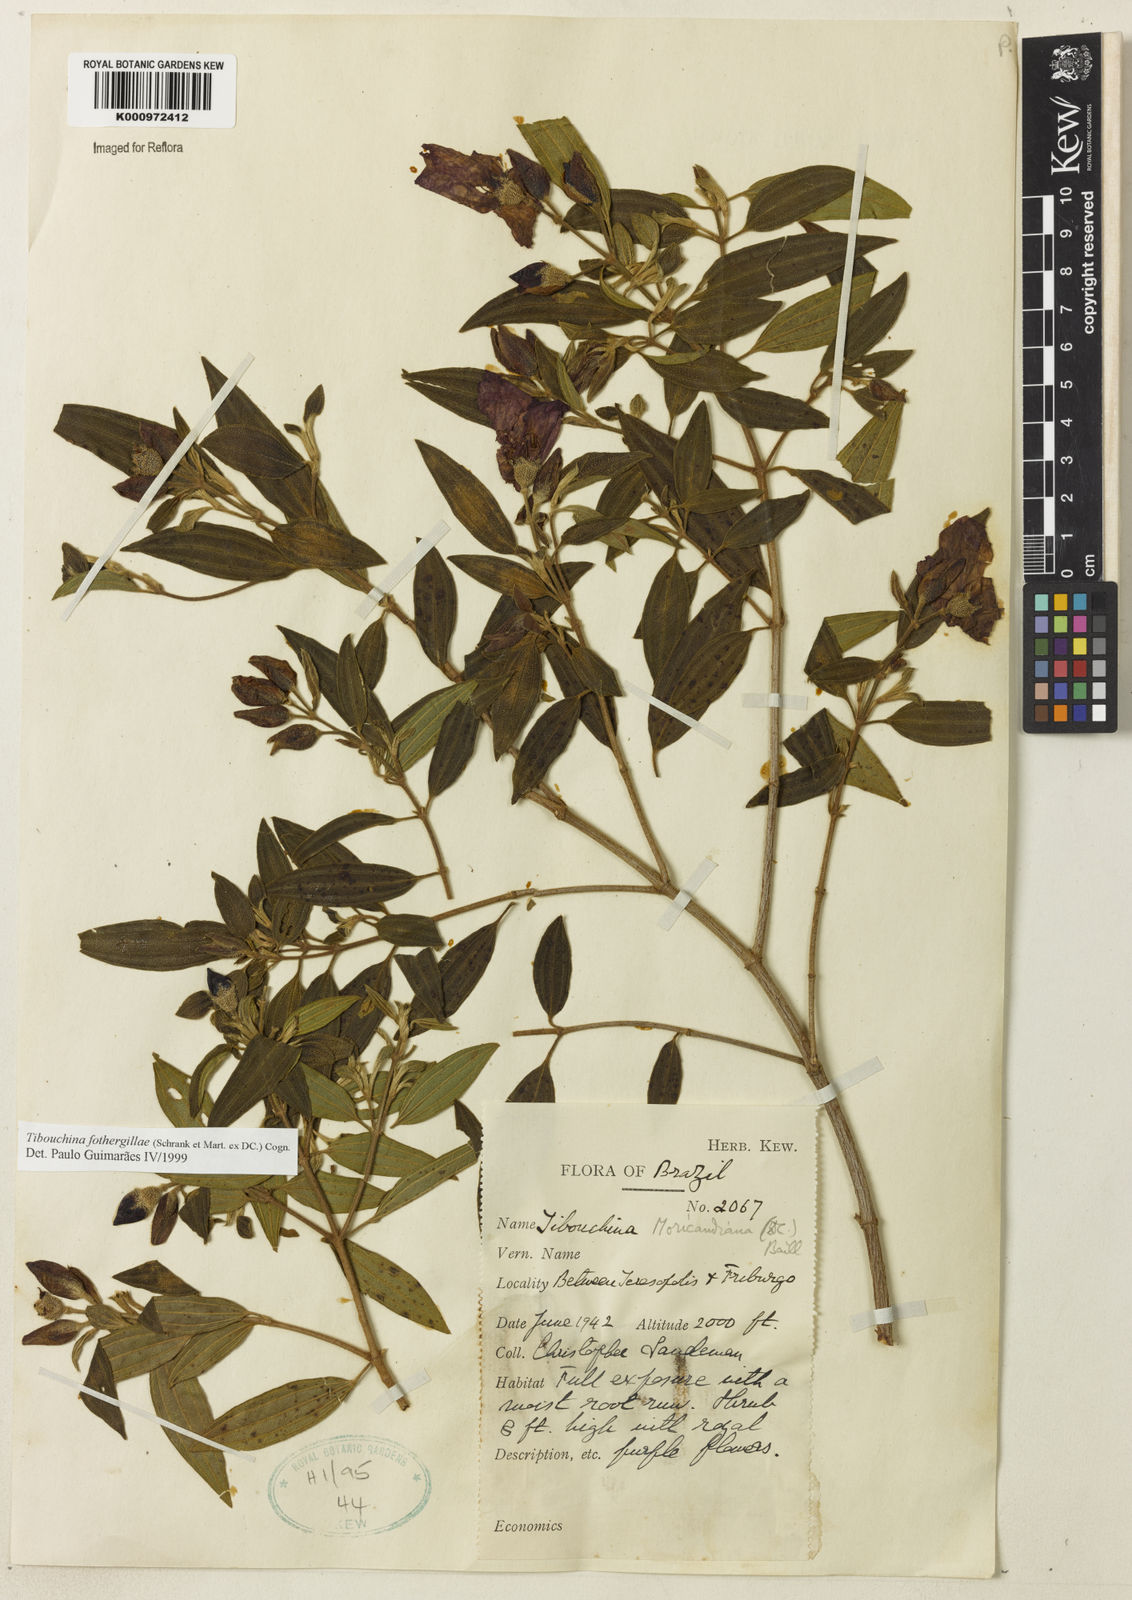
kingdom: Plantae
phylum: Tracheophyta
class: Magnoliopsida
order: Myrtales
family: Melastomataceae
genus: Pleroma
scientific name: Pleroma fothergillae
